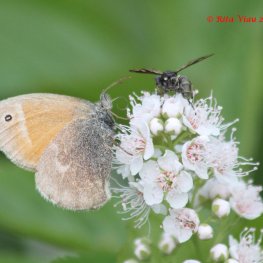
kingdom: Animalia
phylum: Arthropoda
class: Insecta
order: Lepidoptera
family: Nymphalidae
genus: Coenonympha
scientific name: Coenonympha tullia
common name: Large Heath
